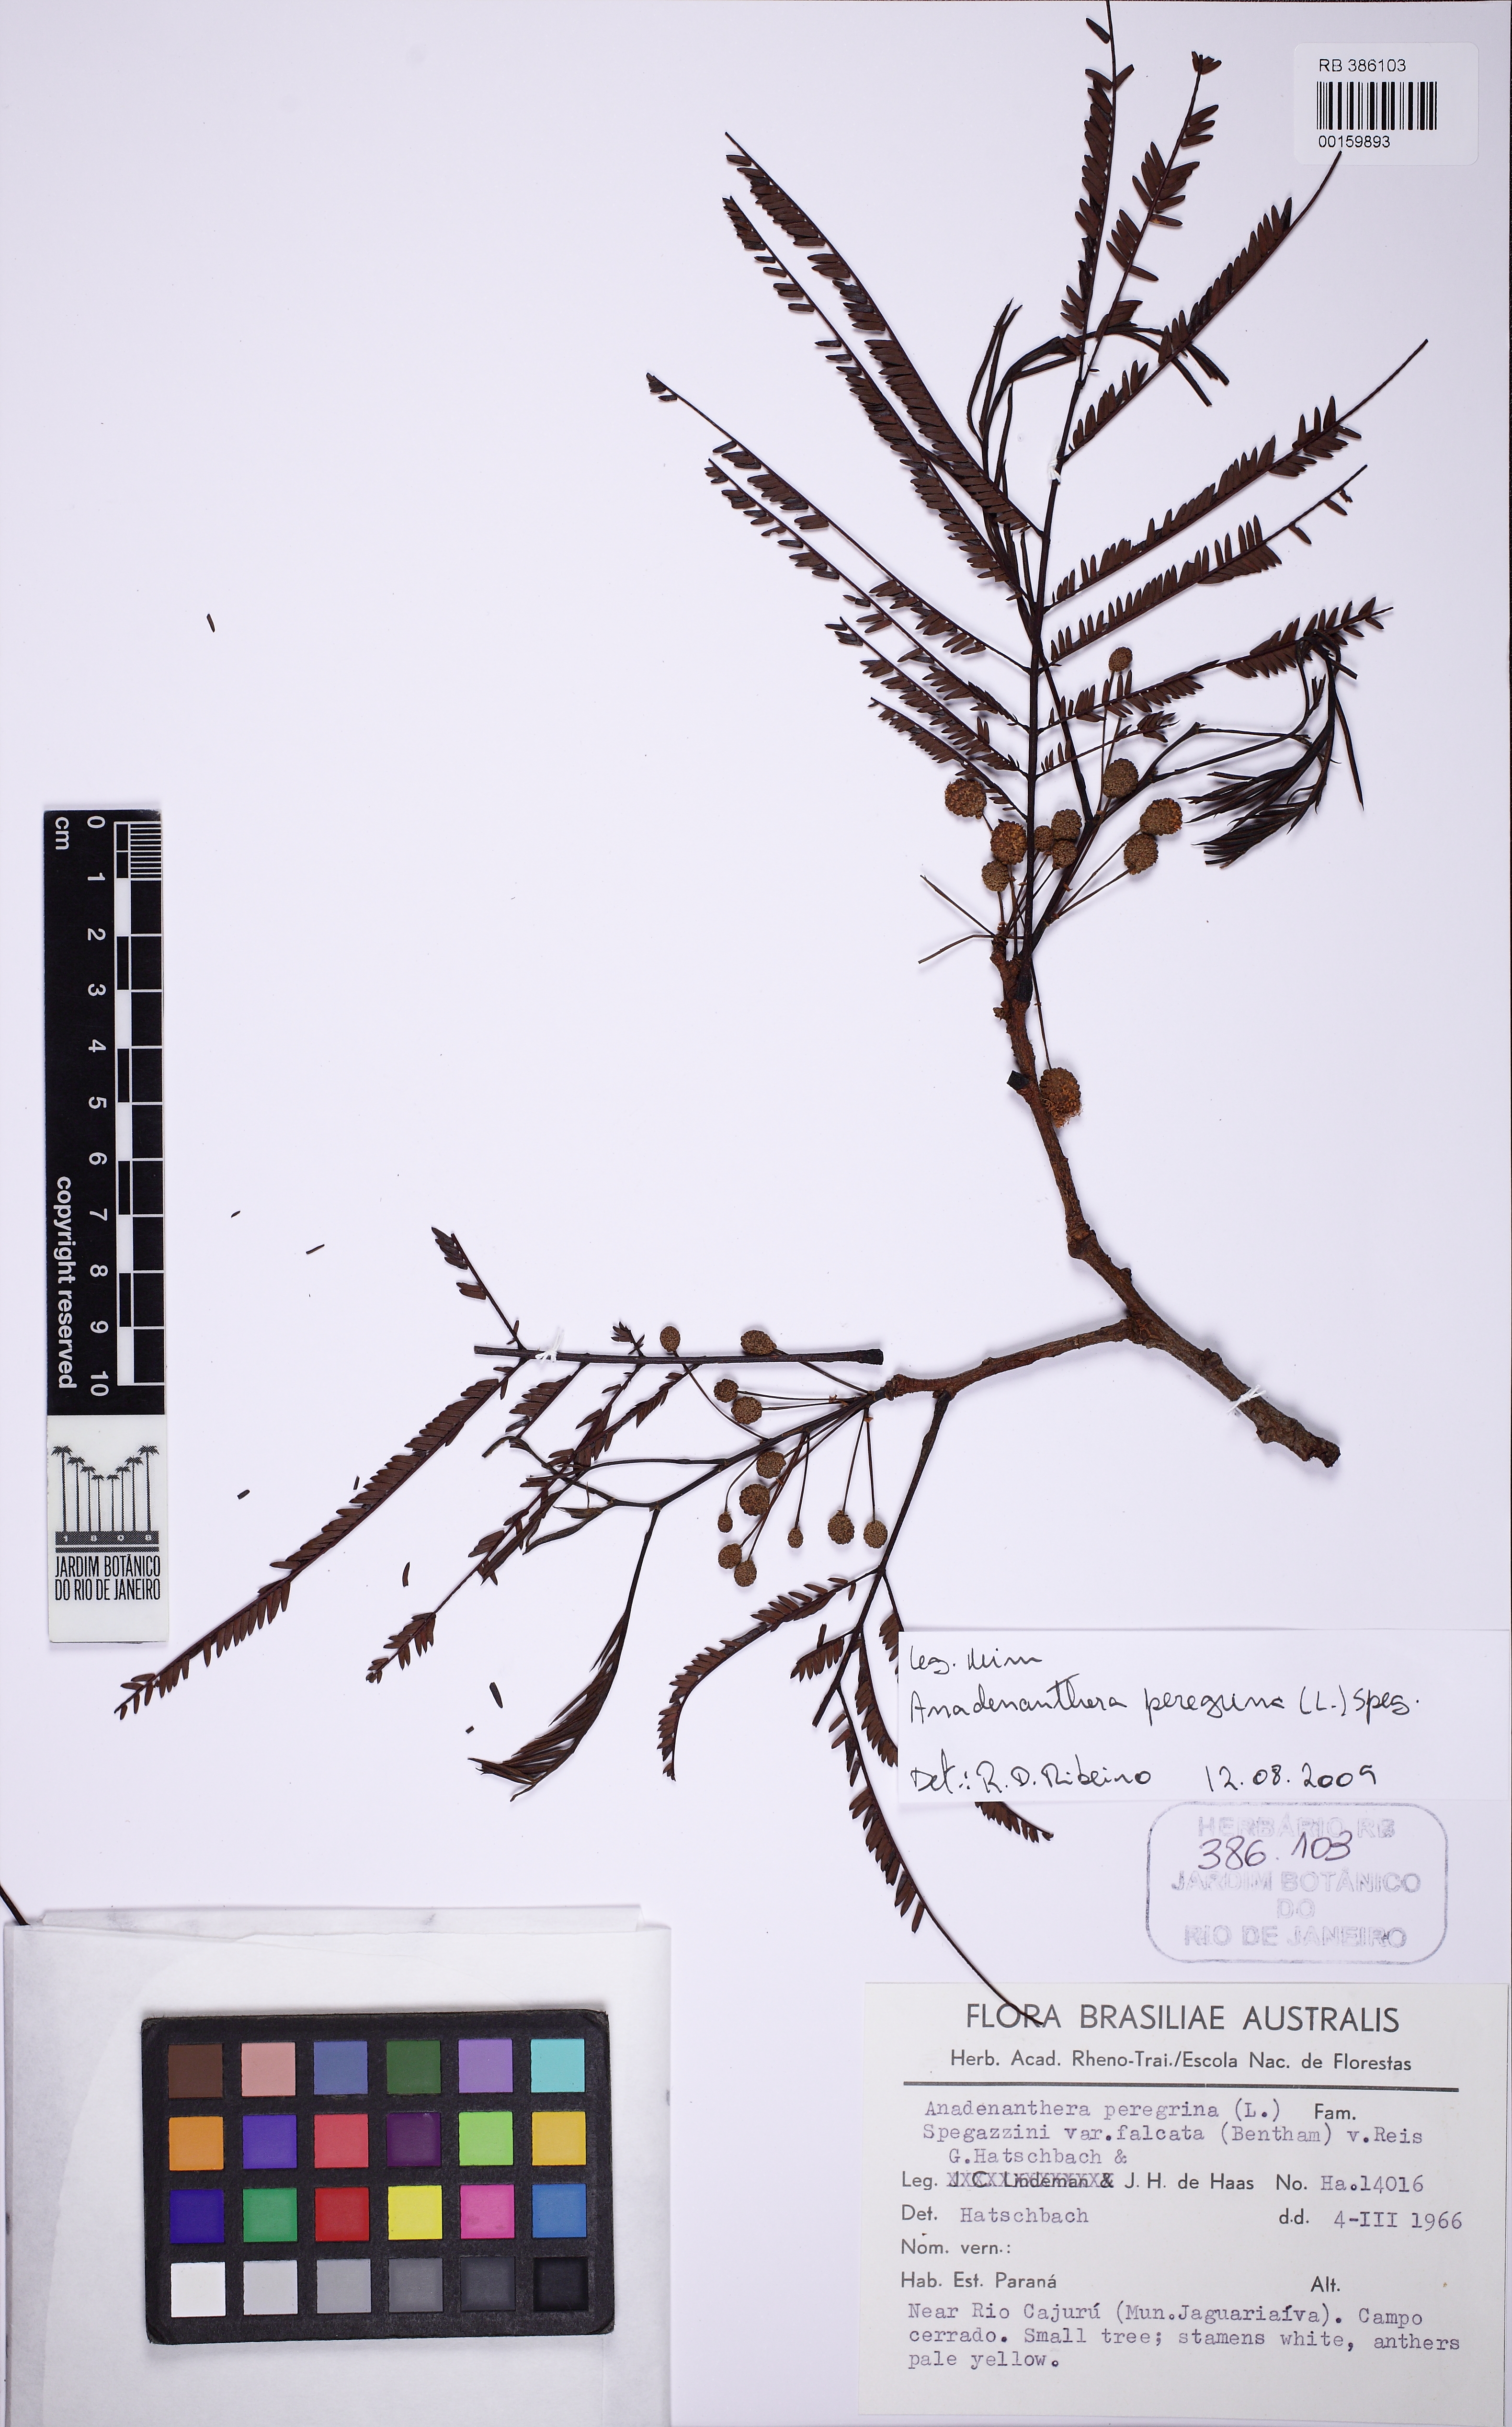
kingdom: Plantae
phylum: Tracheophyta
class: Magnoliopsida
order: Fabales
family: Fabaceae
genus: Anadenanthera
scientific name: Anadenanthera peregrina
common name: Cohoba
